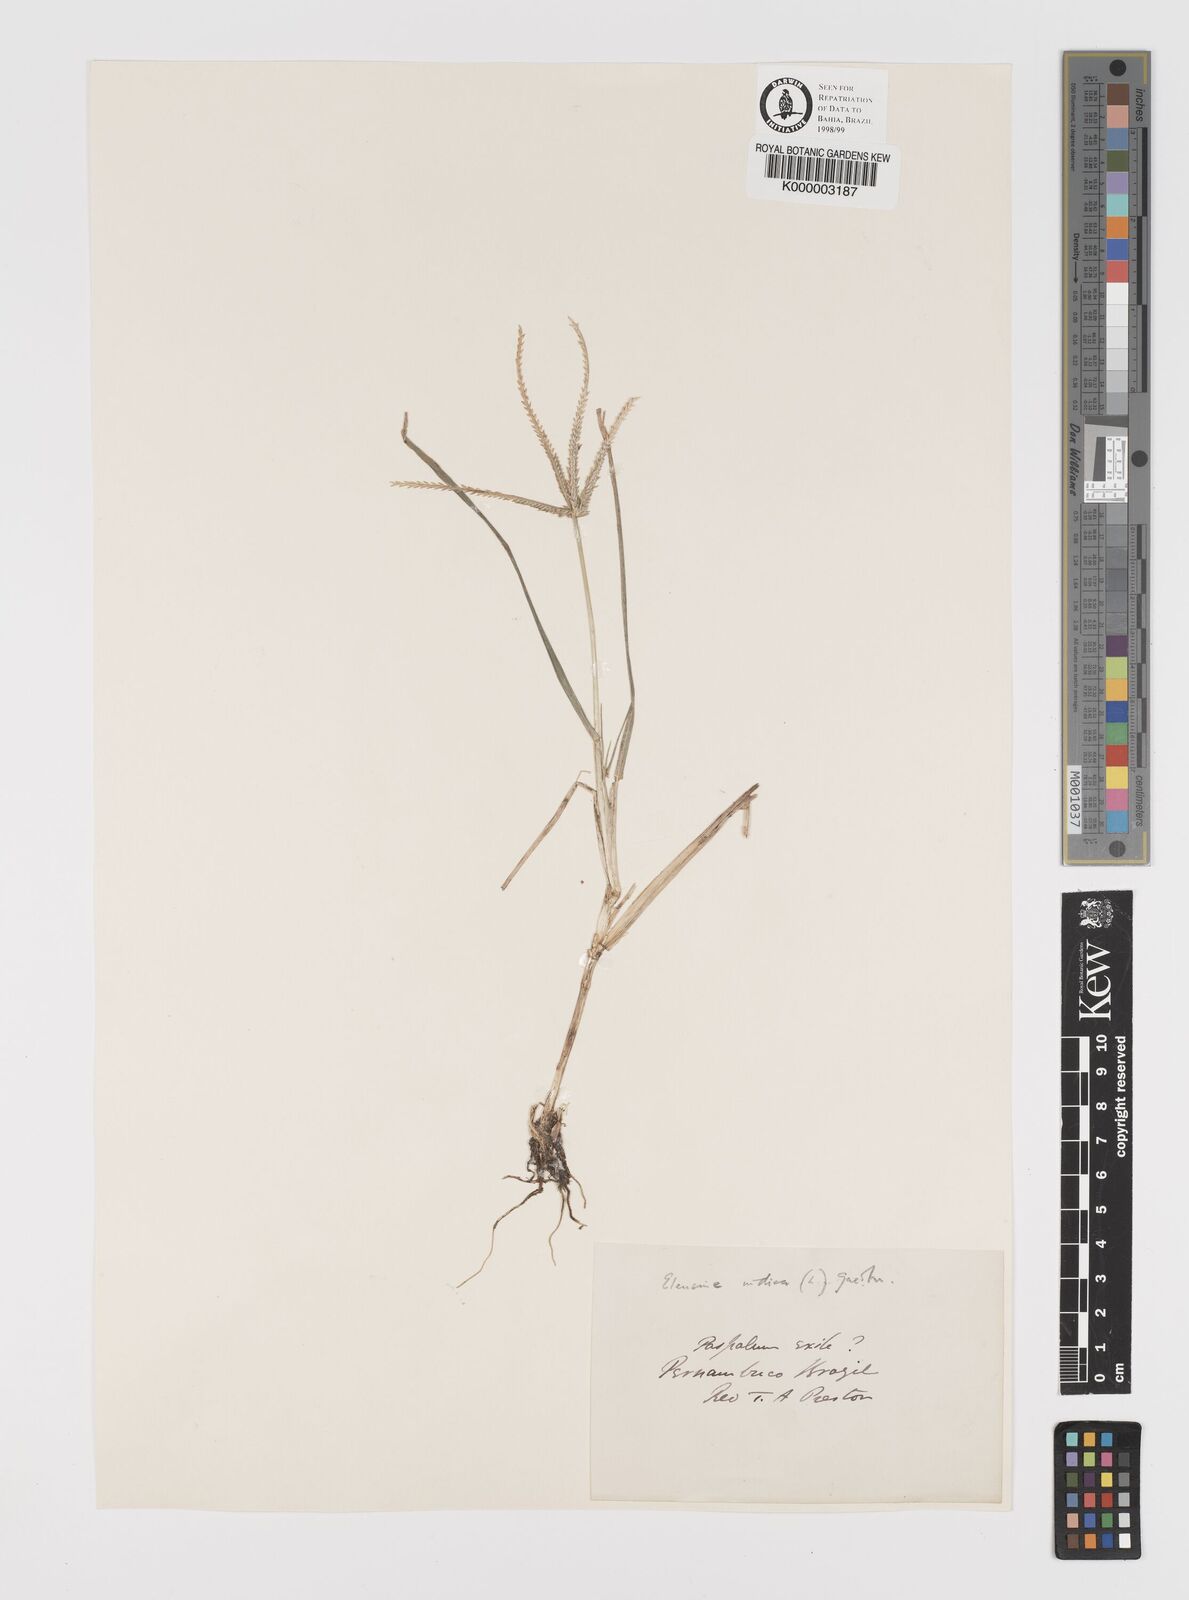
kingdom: Plantae
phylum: Tracheophyta
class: Liliopsida
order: Poales
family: Poaceae
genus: Eleusine
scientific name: Eleusine indica
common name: Yard-grass
